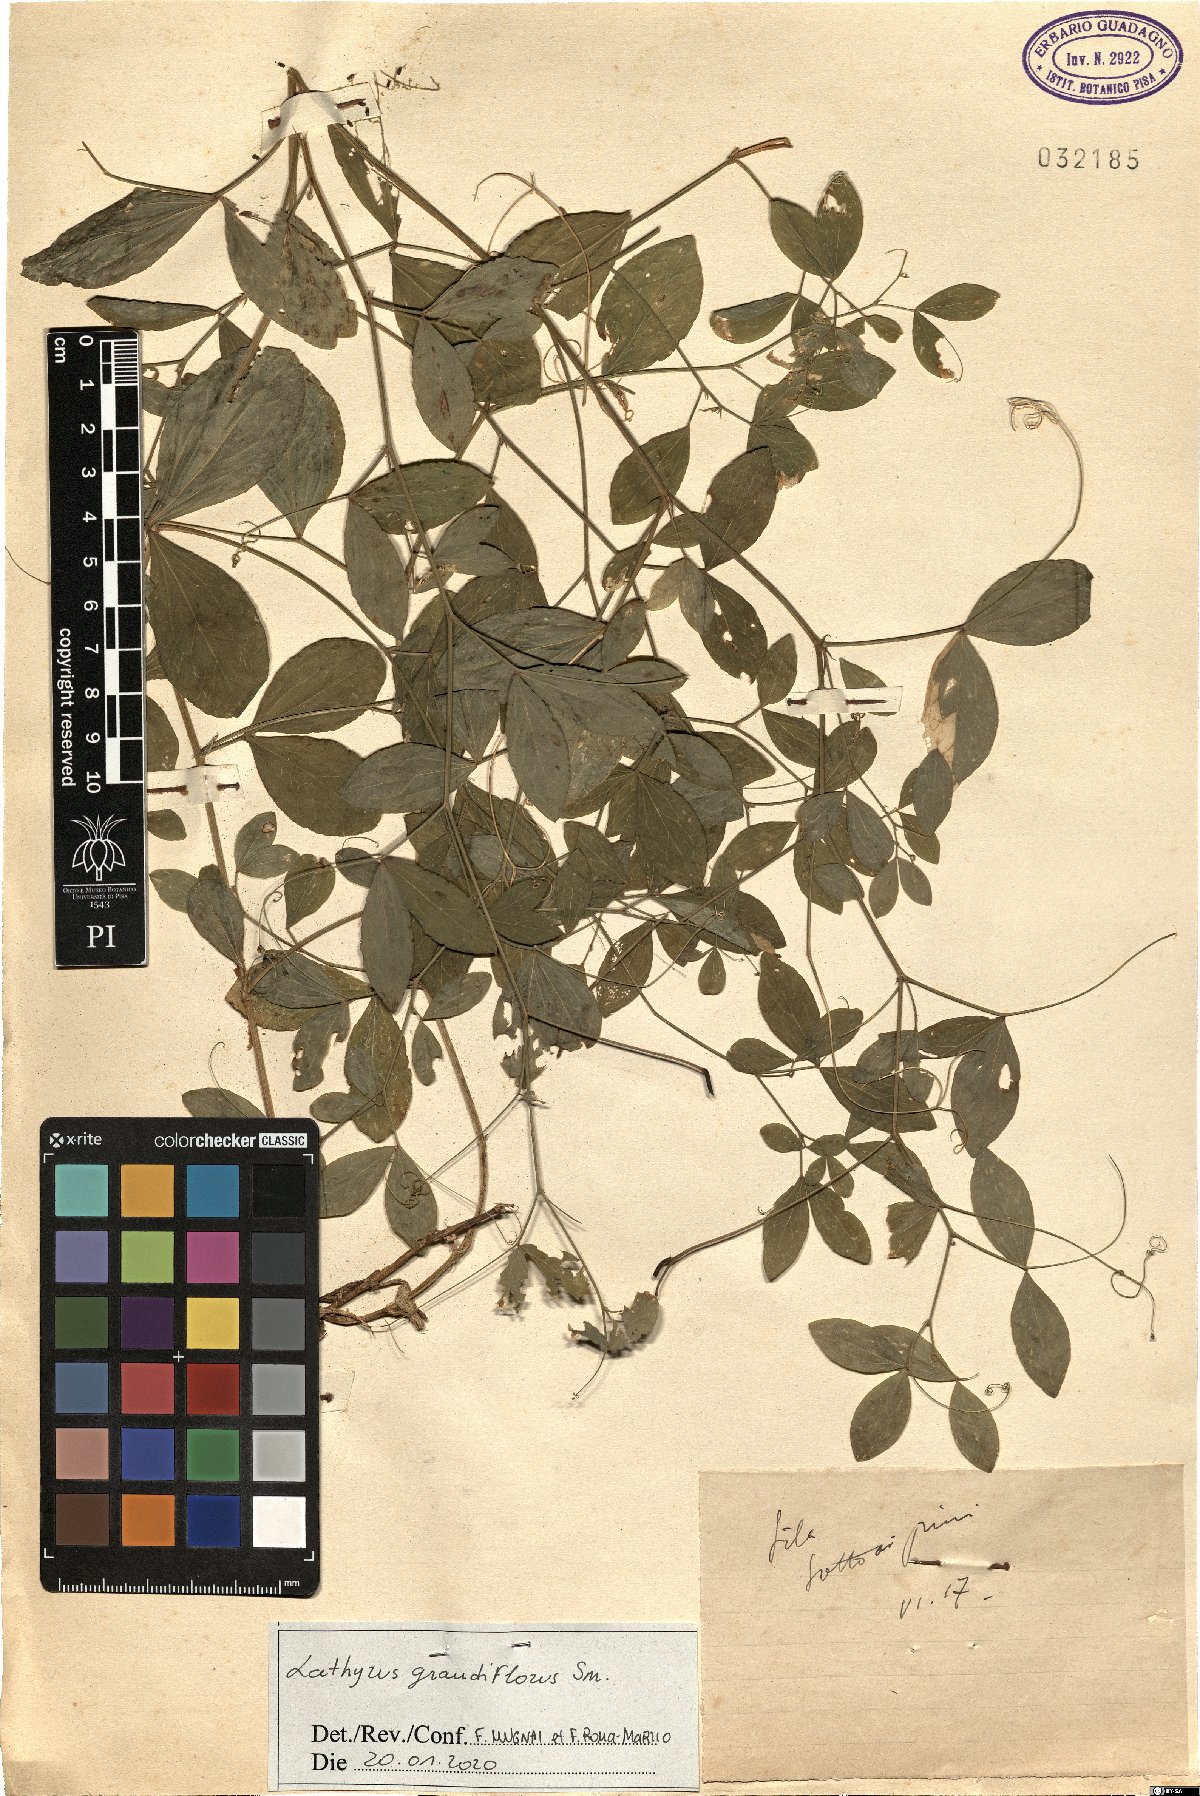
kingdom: Plantae
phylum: Tracheophyta
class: Magnoliopsida
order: Fabales
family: Fabaceae
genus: Lathyrus
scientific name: Lathyrus grandiflorus
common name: Two-flowered everlasting-pea
